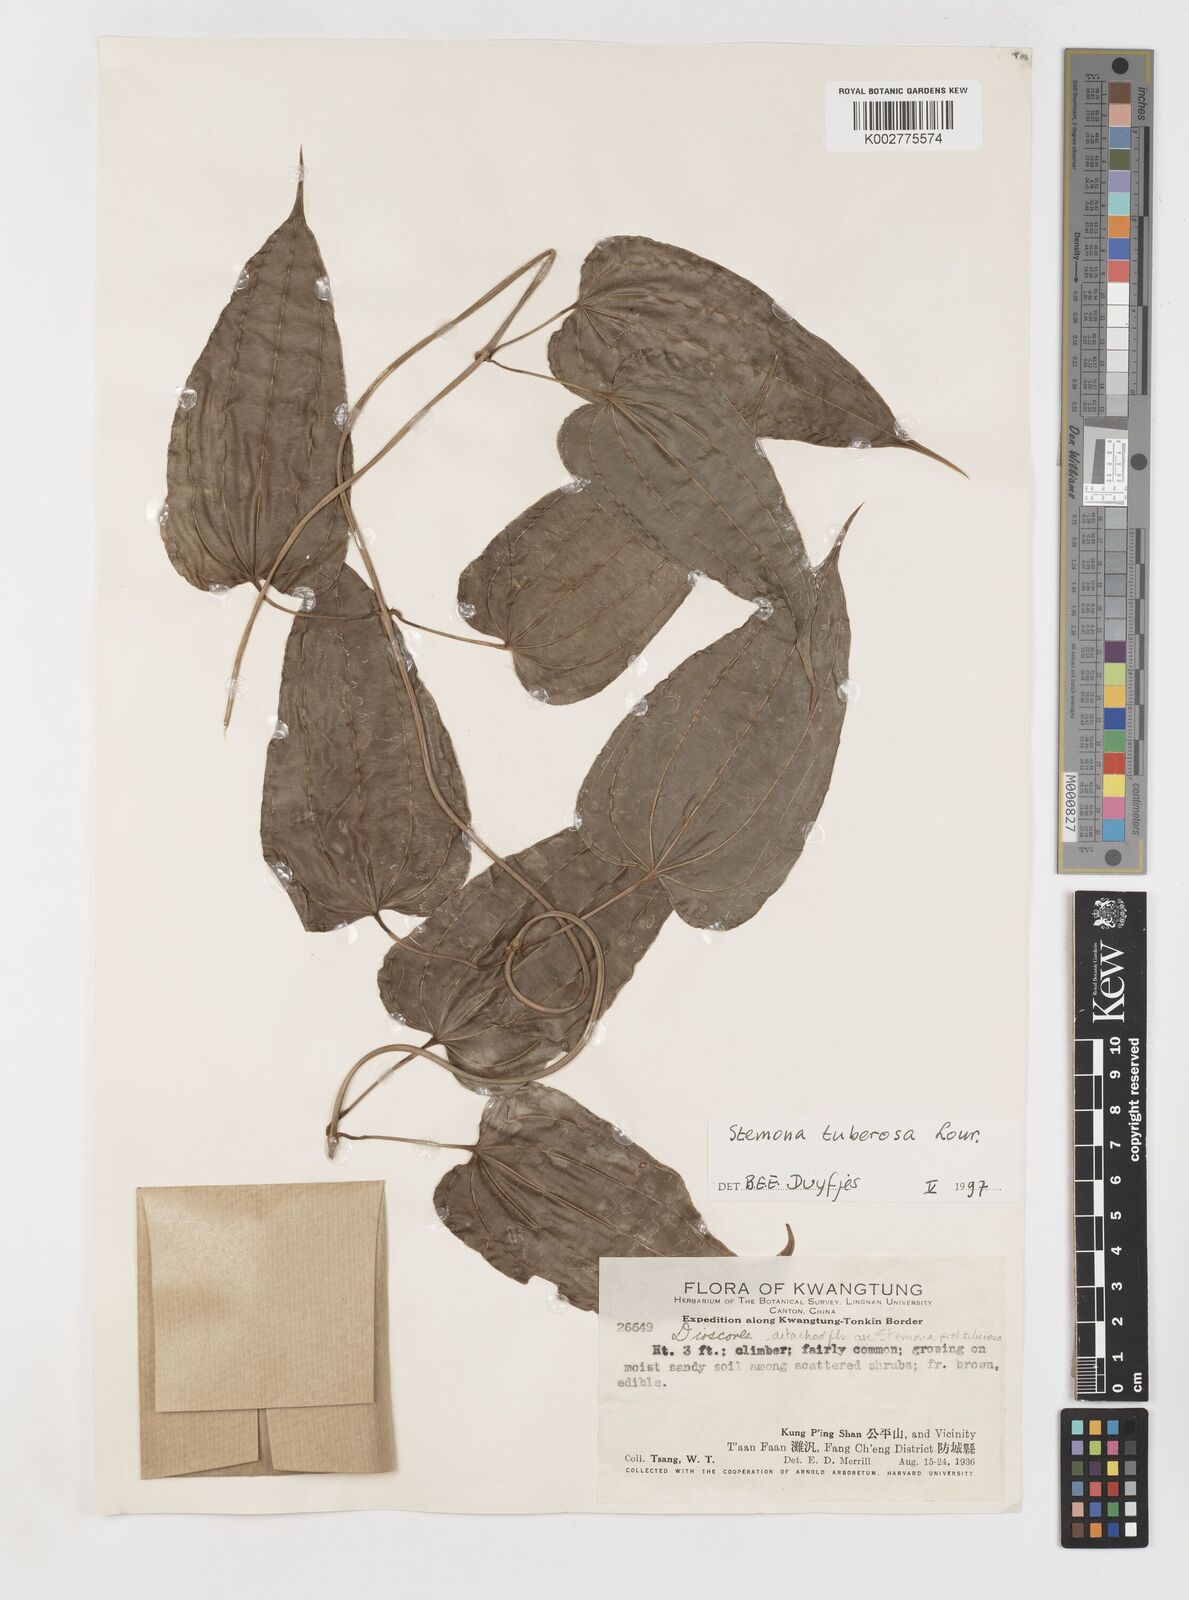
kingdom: Plantae
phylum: Tracheophyta
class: Liliopsida
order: Pandanales
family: Stemonaceae
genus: Stemona
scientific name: Stemona tuberosa
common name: Stemona
